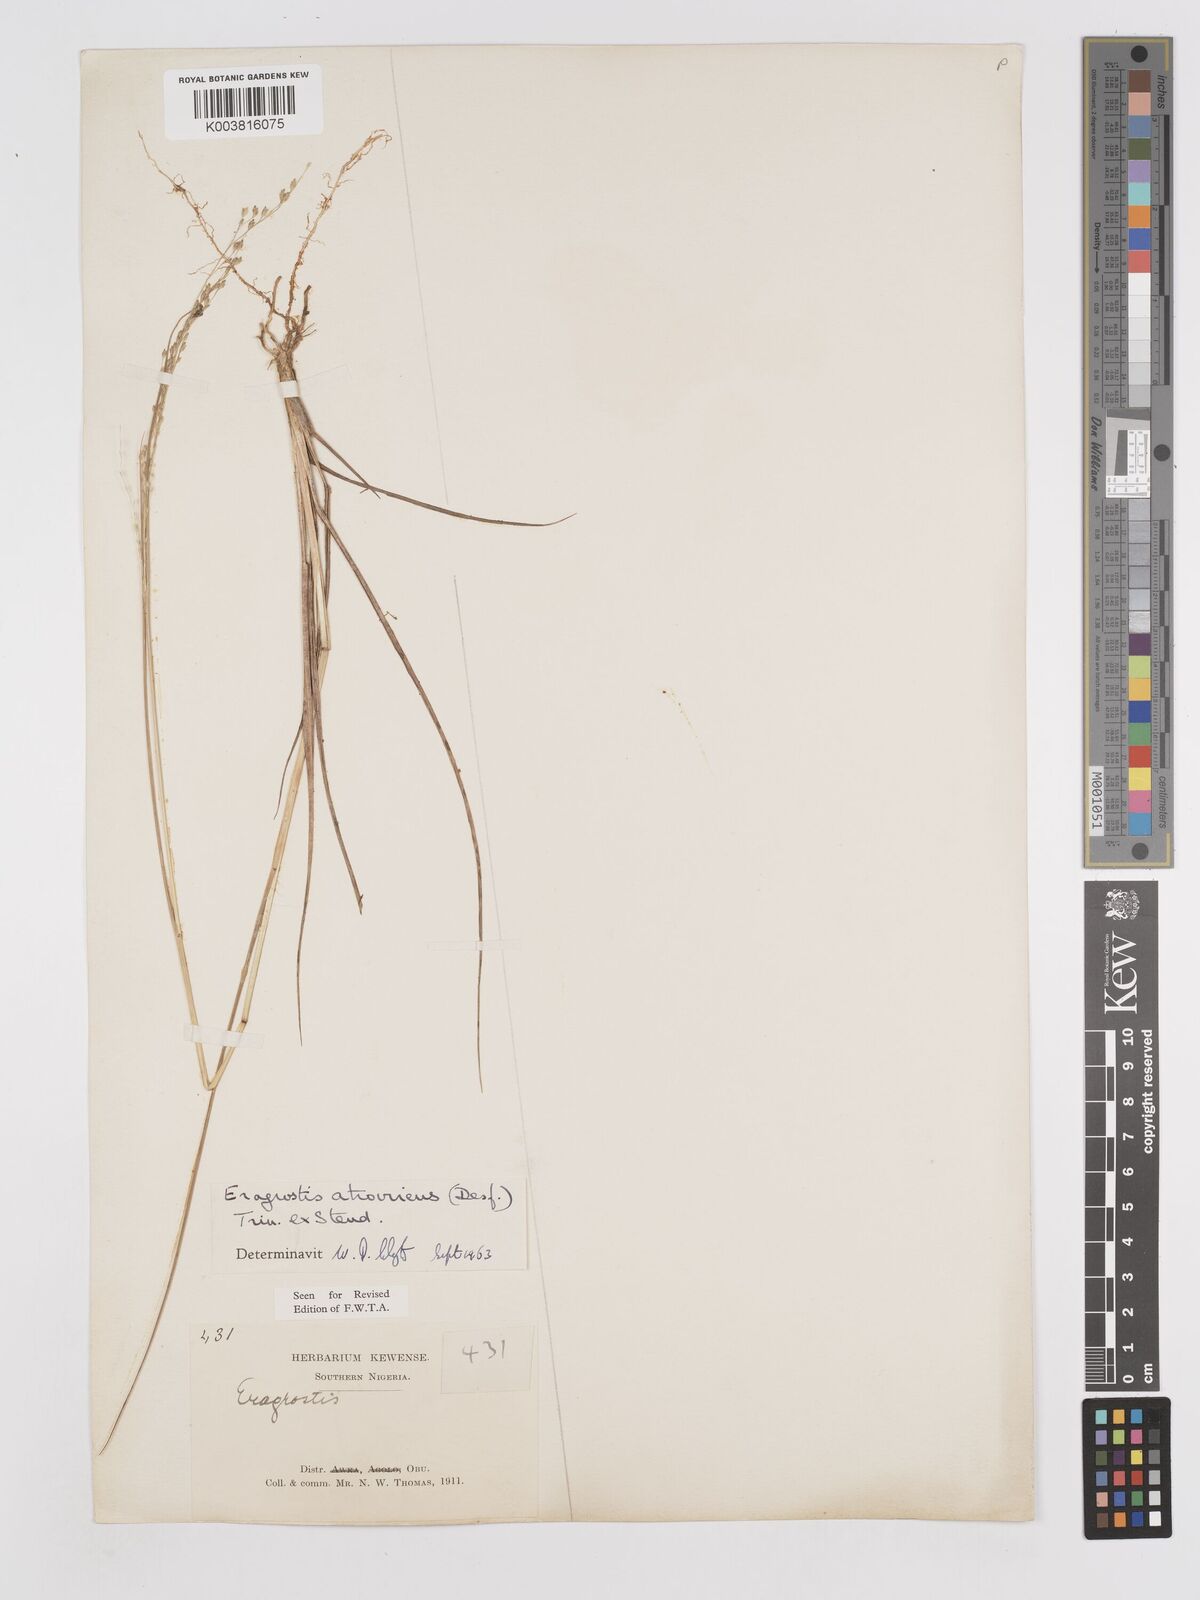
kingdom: Plantae
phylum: Tracheophyta
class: Liliopsida
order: Poales
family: Poaceae
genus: Eragrostis
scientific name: Eragrostis atrovirens
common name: Thalia lovegrass
